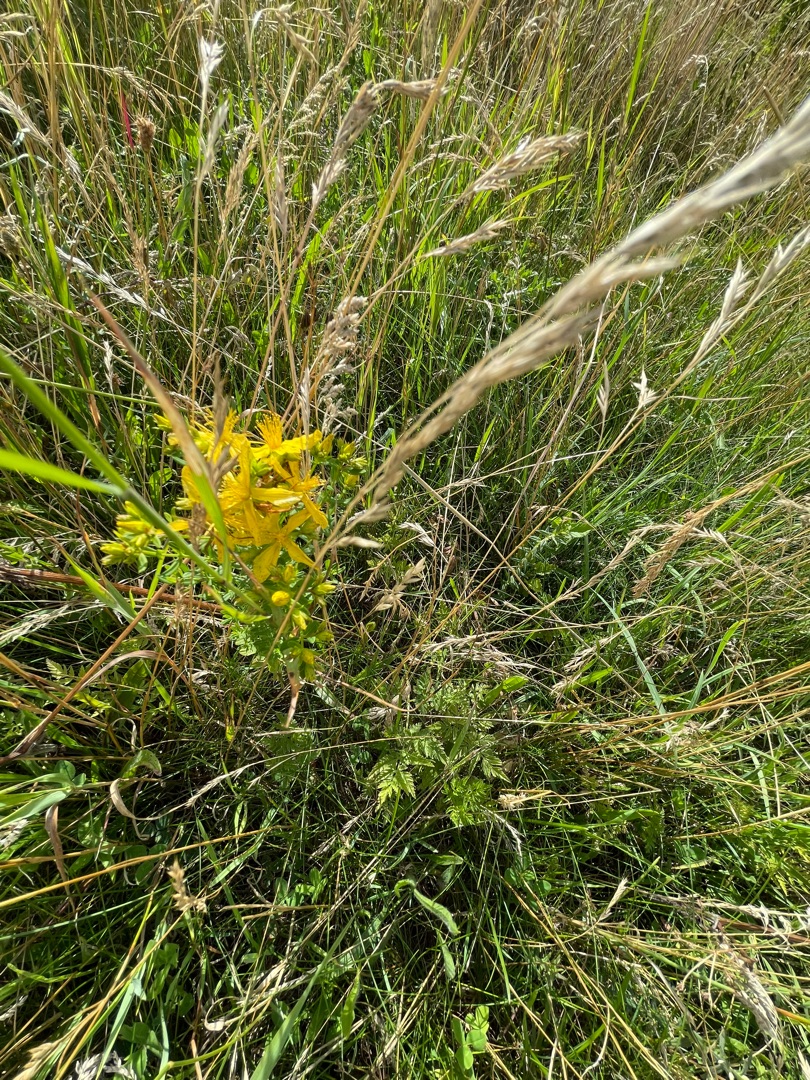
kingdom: Plantae
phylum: Tracheophyta
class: Magnoliopsida
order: Malpighiales
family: Hypericaceae
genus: Hypericum
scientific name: Hypericum perforatum
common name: Prikbladet perikon
